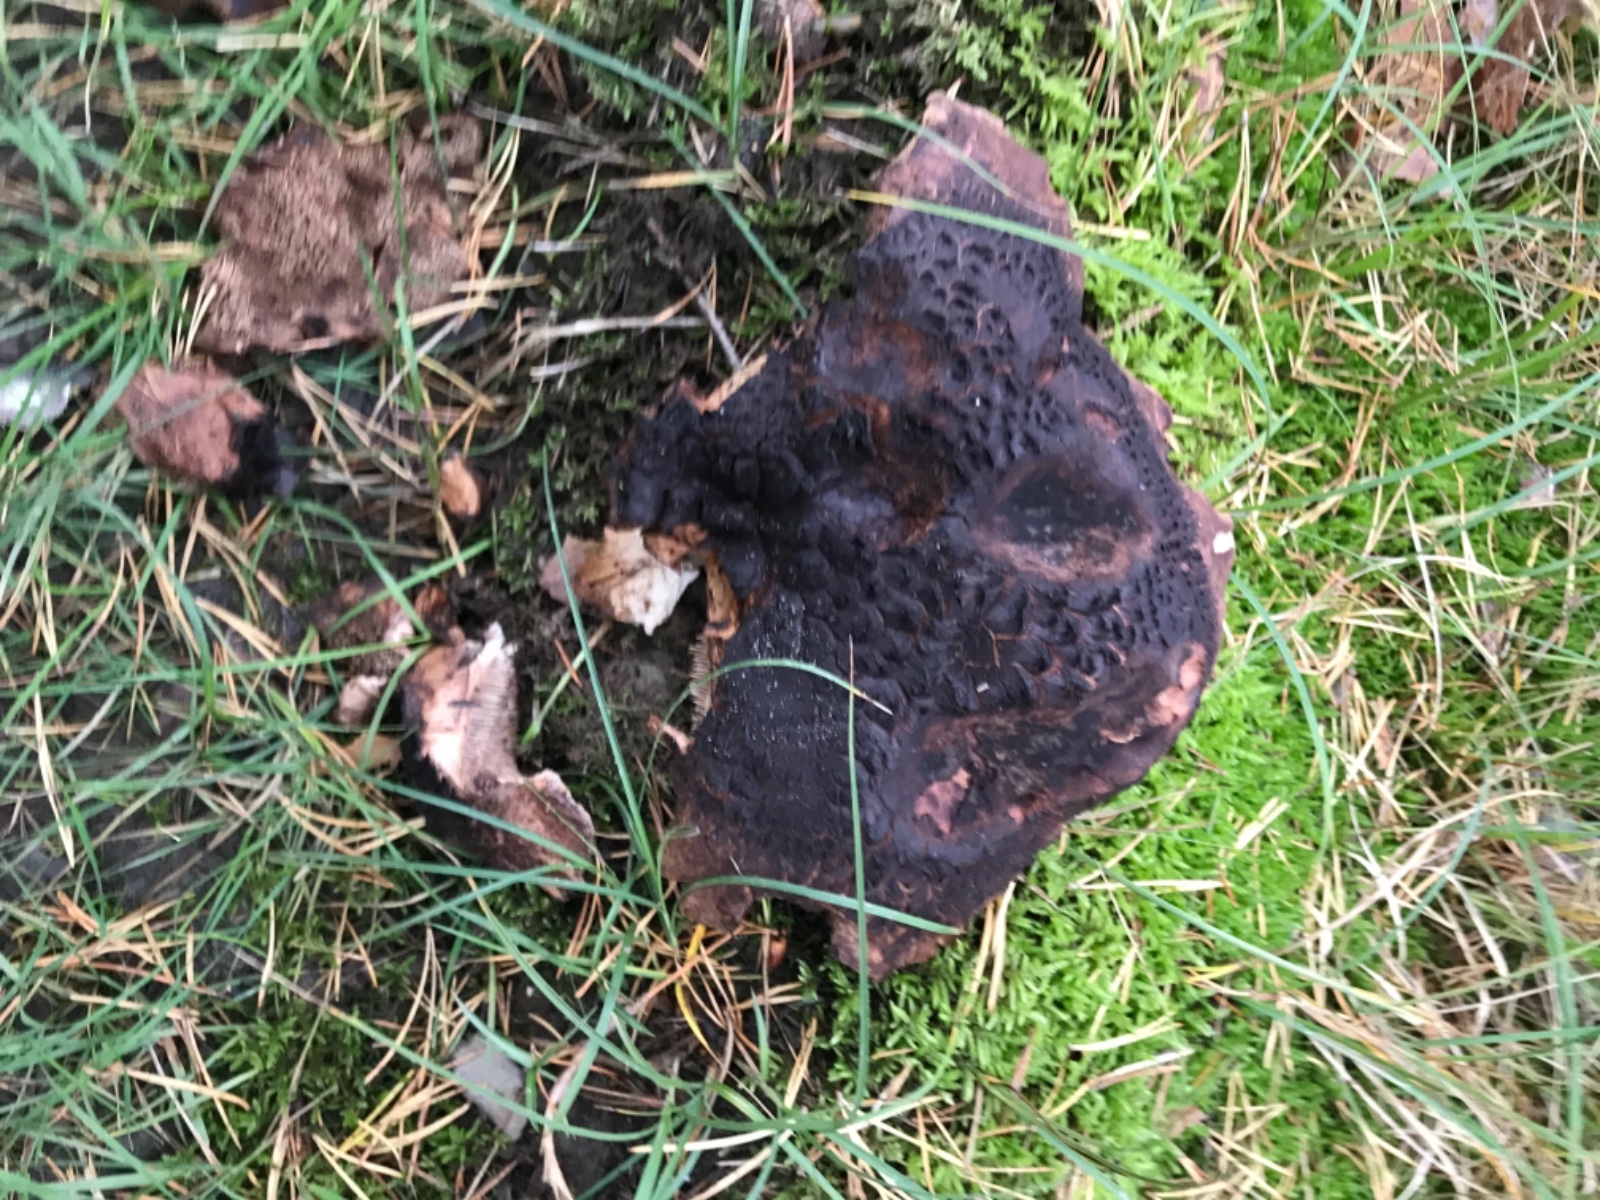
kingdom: Fungi
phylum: Basidiomycota
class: Agaricomycetes
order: Thelephorales
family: Bankeraceae
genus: Sarcodon
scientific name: Sarcodon squamosus
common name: småskællet kødpigsvamp
